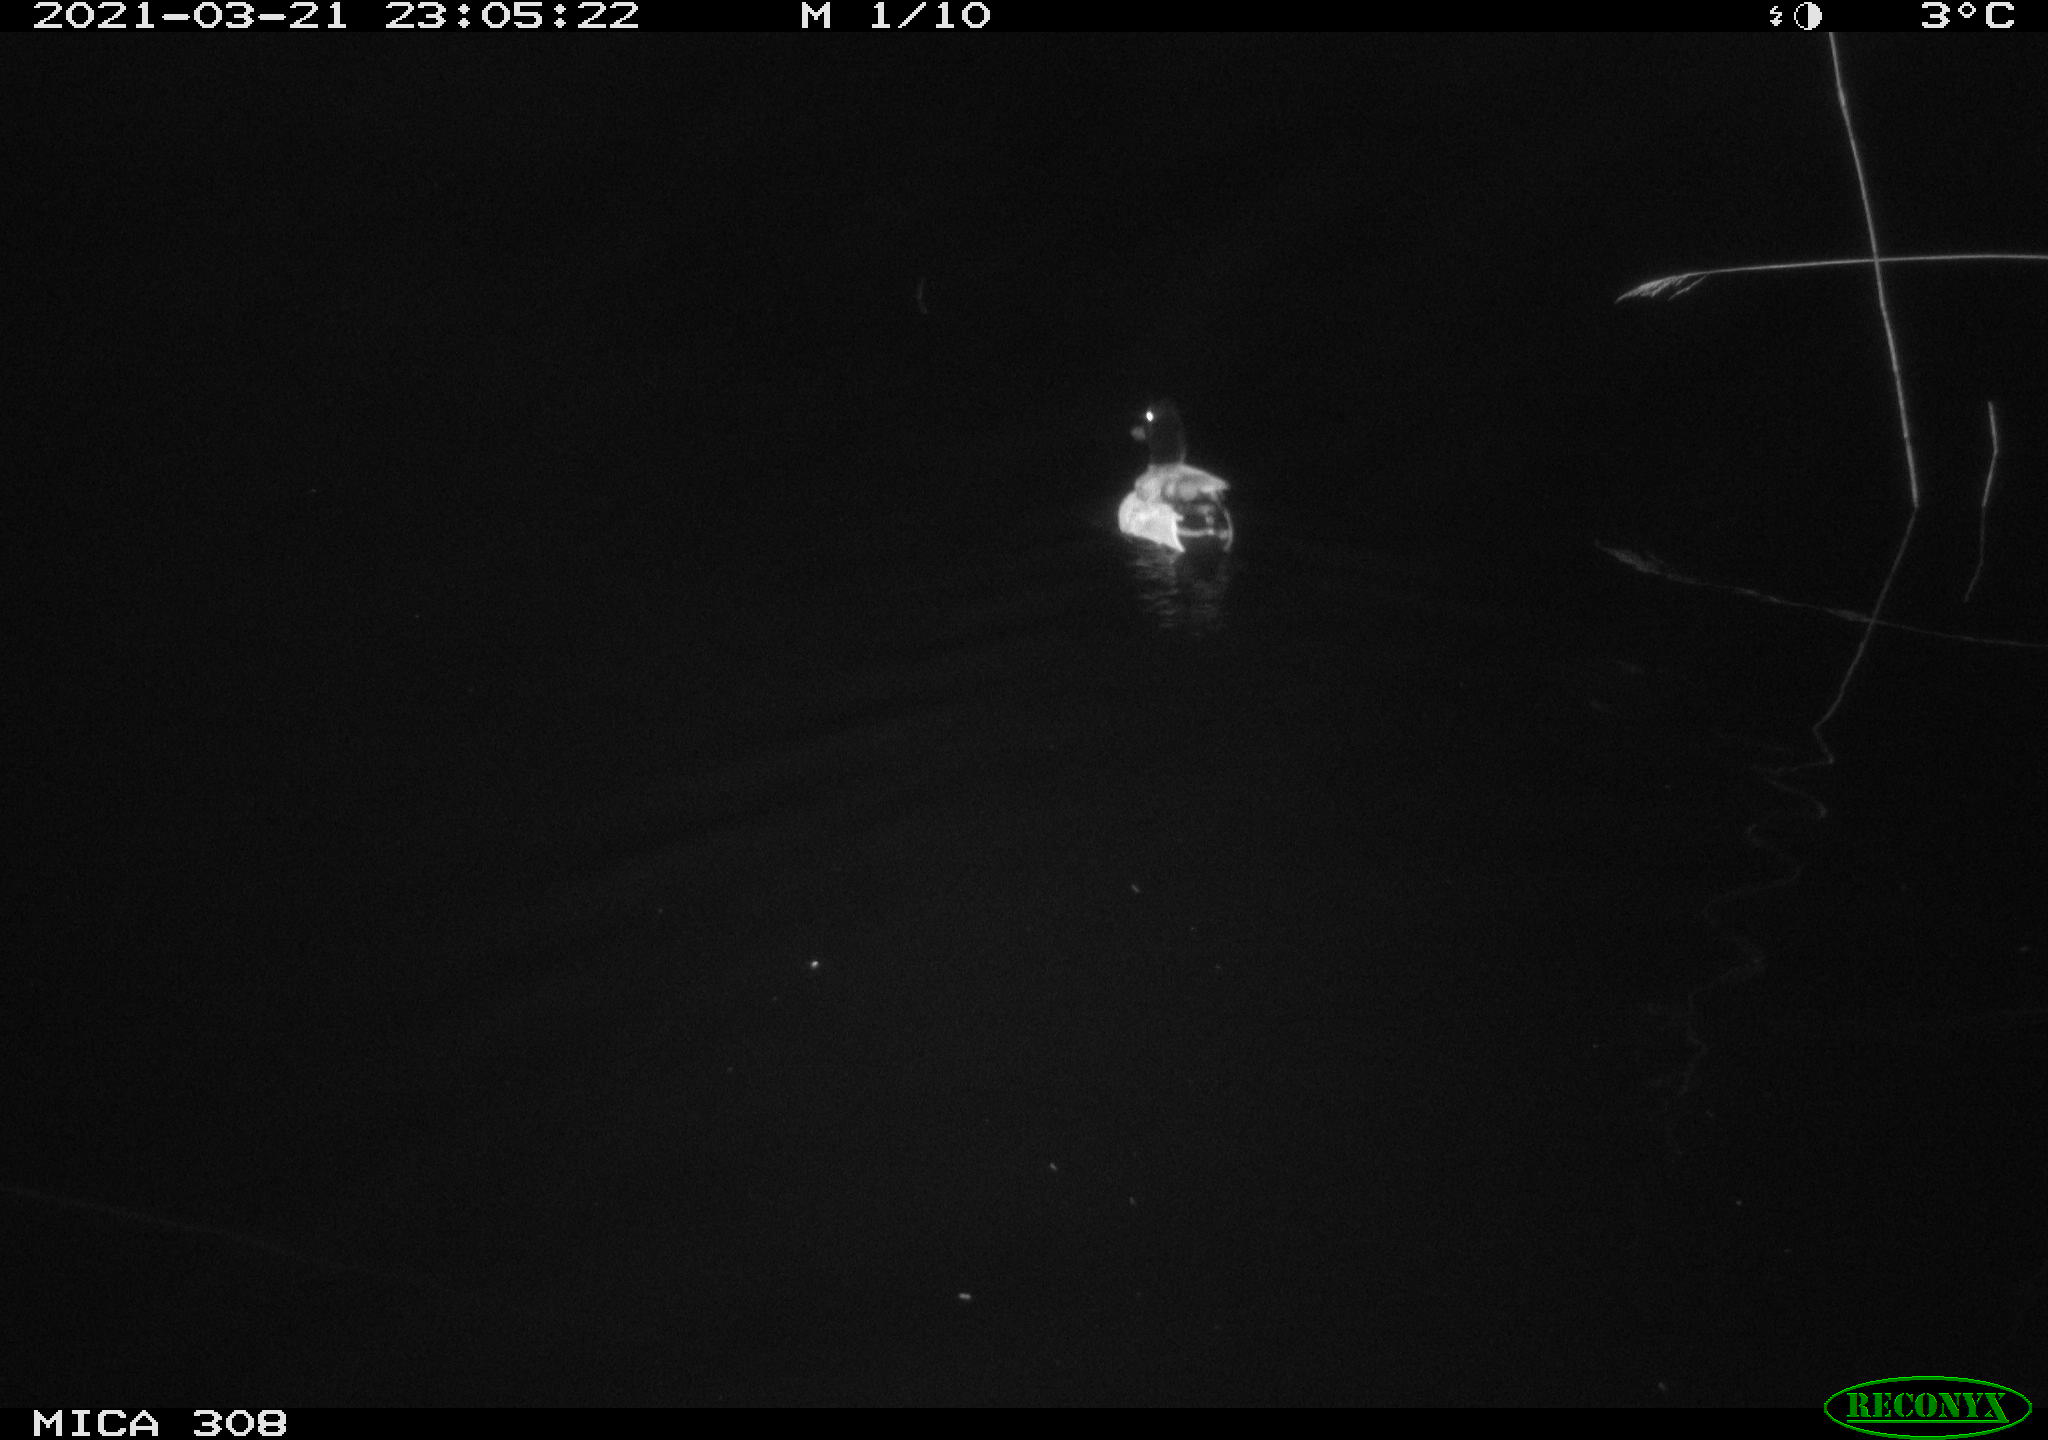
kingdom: Animalia
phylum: Chordata
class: Aves
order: Anseriformes
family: Anatidae
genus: Anas
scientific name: Anas platyrhynchos
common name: Mallard
